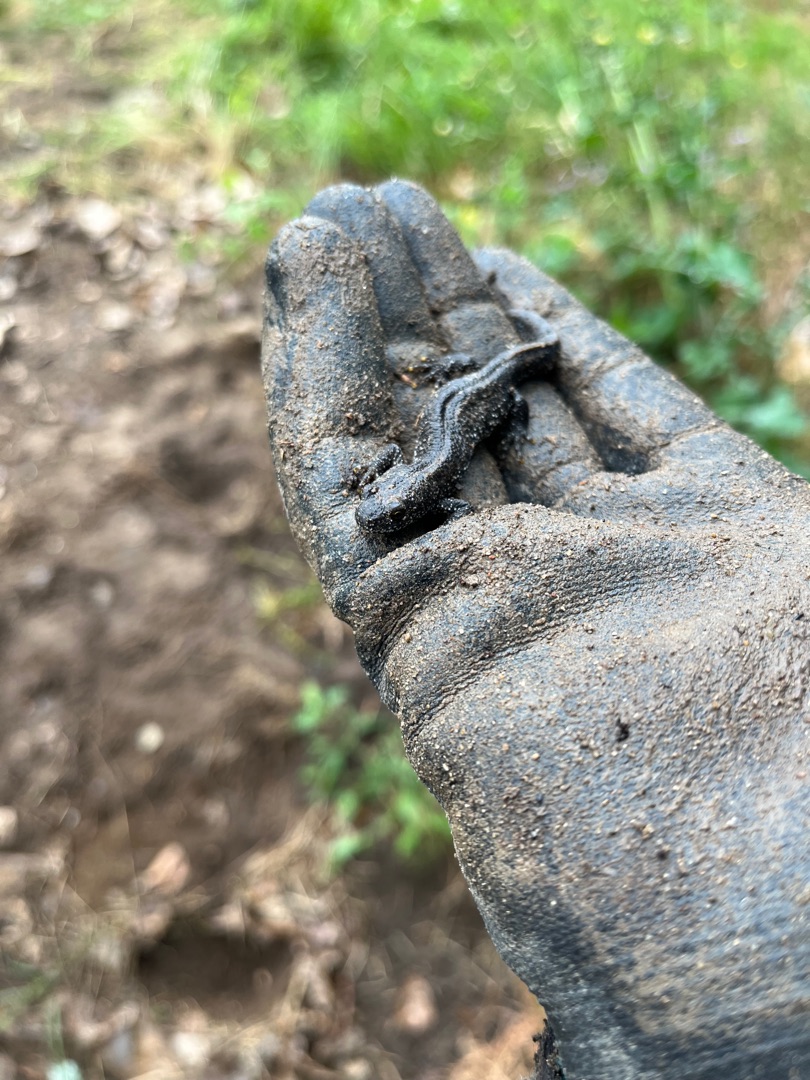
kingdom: Animalia
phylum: Chordata
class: Amphibia
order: Caudata
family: Salamandridae
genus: Triturus
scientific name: Triturus cristatus
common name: Stor vandsalamander
